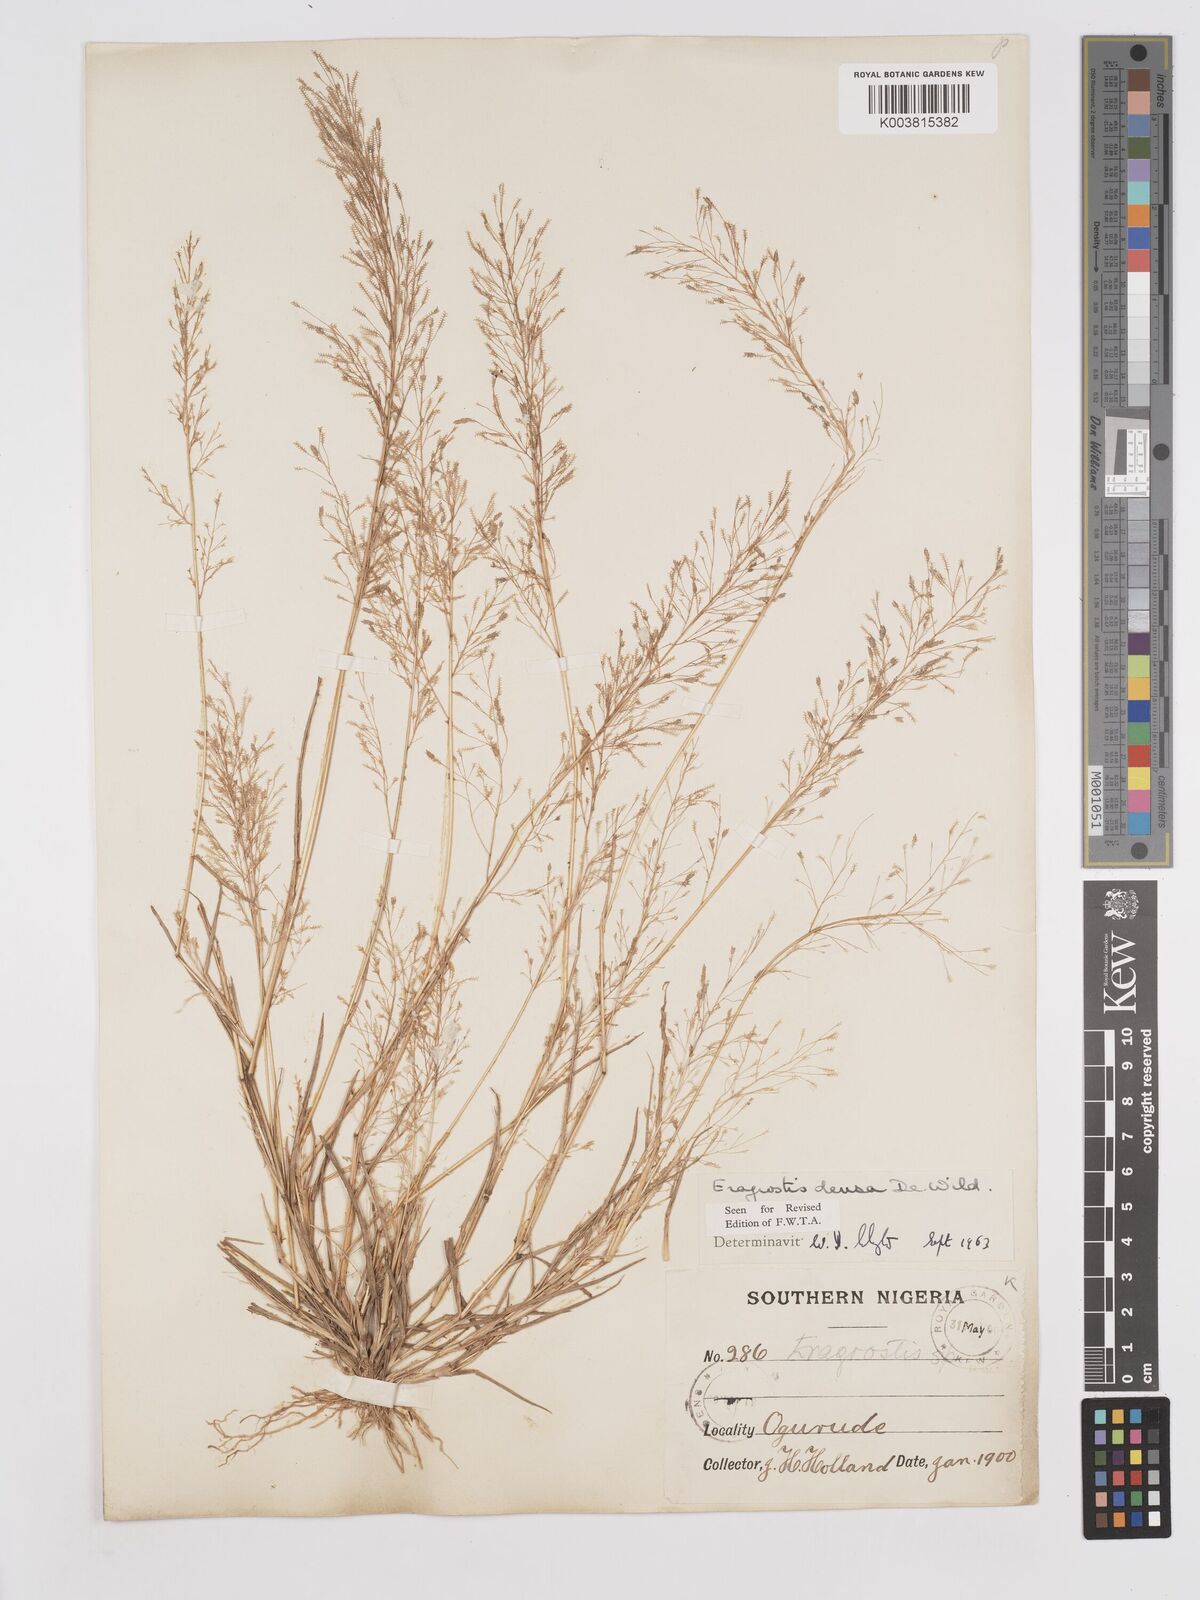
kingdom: Plantae
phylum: Tracheophyta
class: Liliopsida
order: Poales
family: Poaceae
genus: Eragrostis
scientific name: Eragrostis welwitschii
